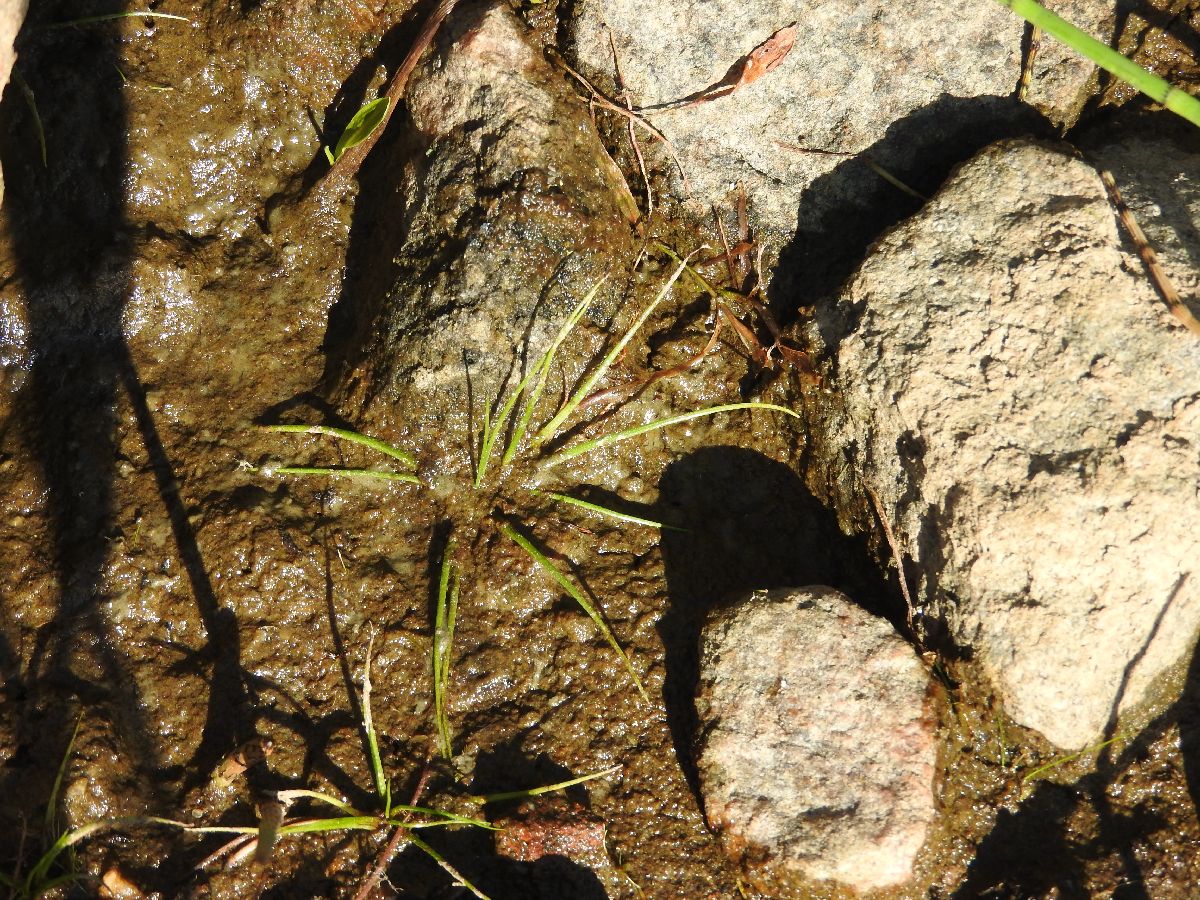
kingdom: Plantae
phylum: Tracheophyta
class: Lycopodiopsida
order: Isoetales
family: Isoetaceae
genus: Isoetes
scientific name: Isoetes echinospora
